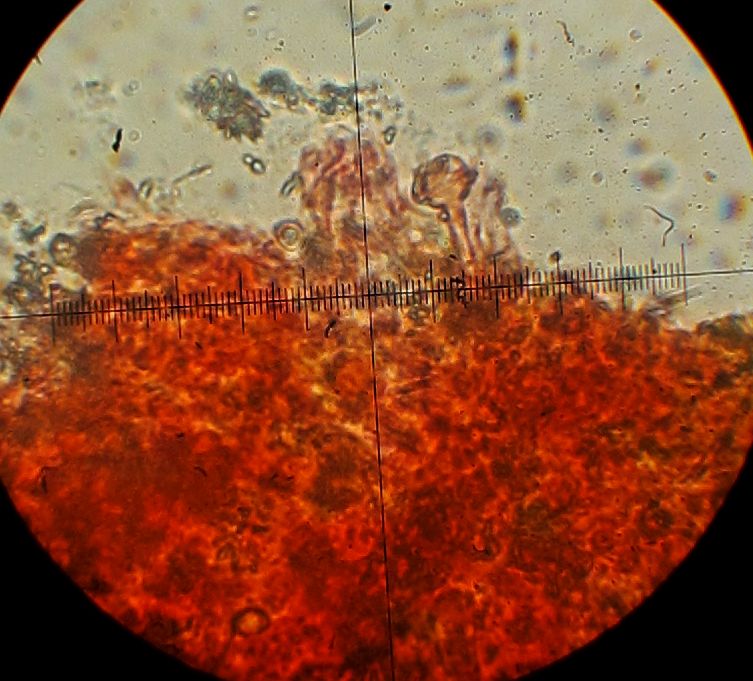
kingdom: Fungi
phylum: Basidiomycota
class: Agaricomycetes
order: Hymenochaetales
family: Rickenellaceae
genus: Resinicium
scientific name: Resinicium bicolor
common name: almindelig vokstand
